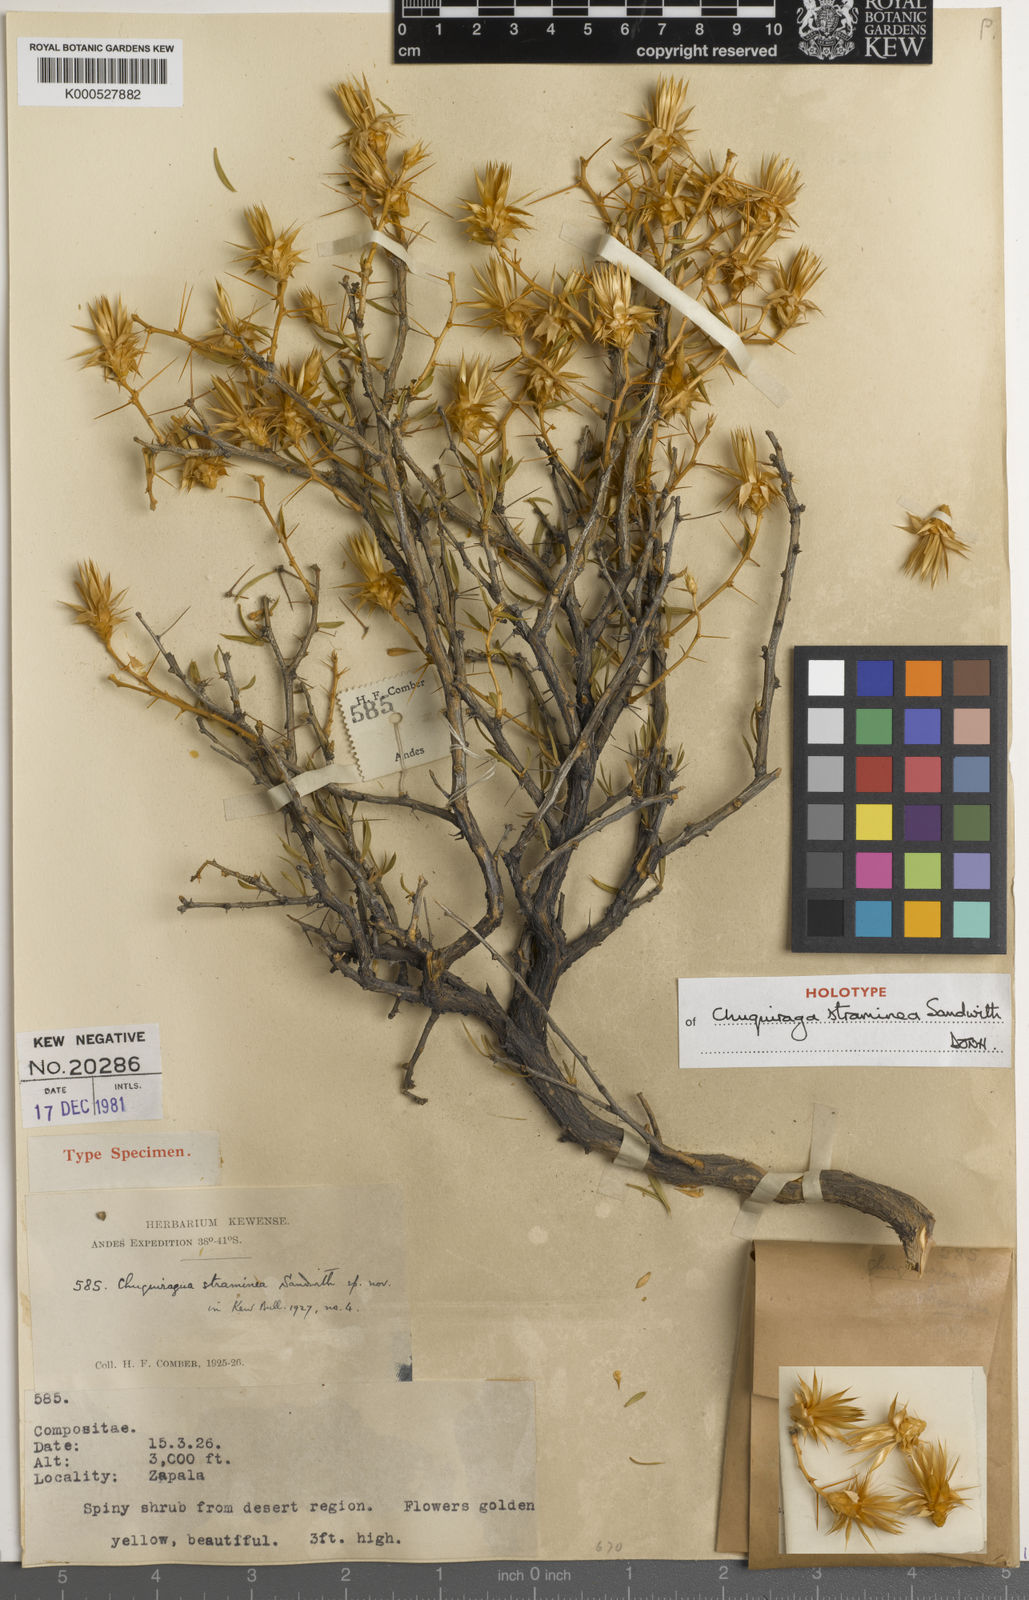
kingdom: Plantae
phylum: Tracheophyta
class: Magnoliopsida
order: Asterales
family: Asteraceae
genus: Chuquiraga
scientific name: Chuquiraga straminea
